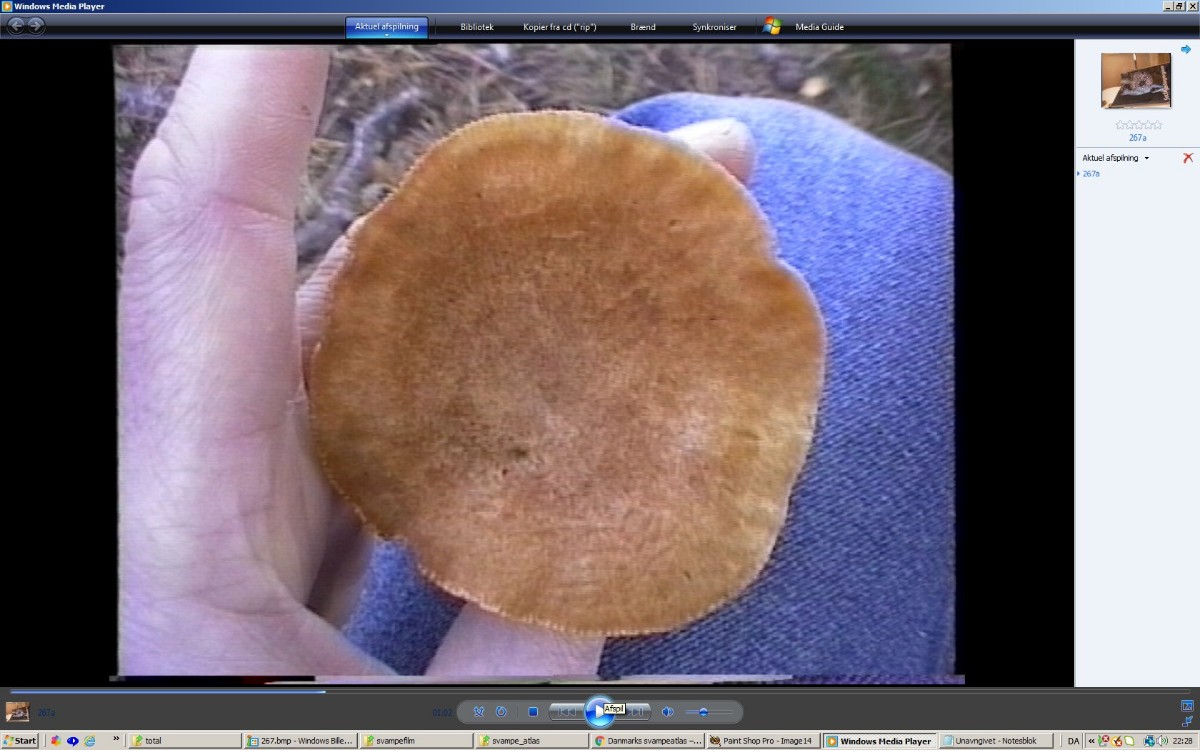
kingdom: Fungi
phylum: Basidiomycota
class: Agaricomycetes
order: Russulales
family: Russulaceae
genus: Lactarius
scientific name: Lactarius helvus
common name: mose-mælkehat
